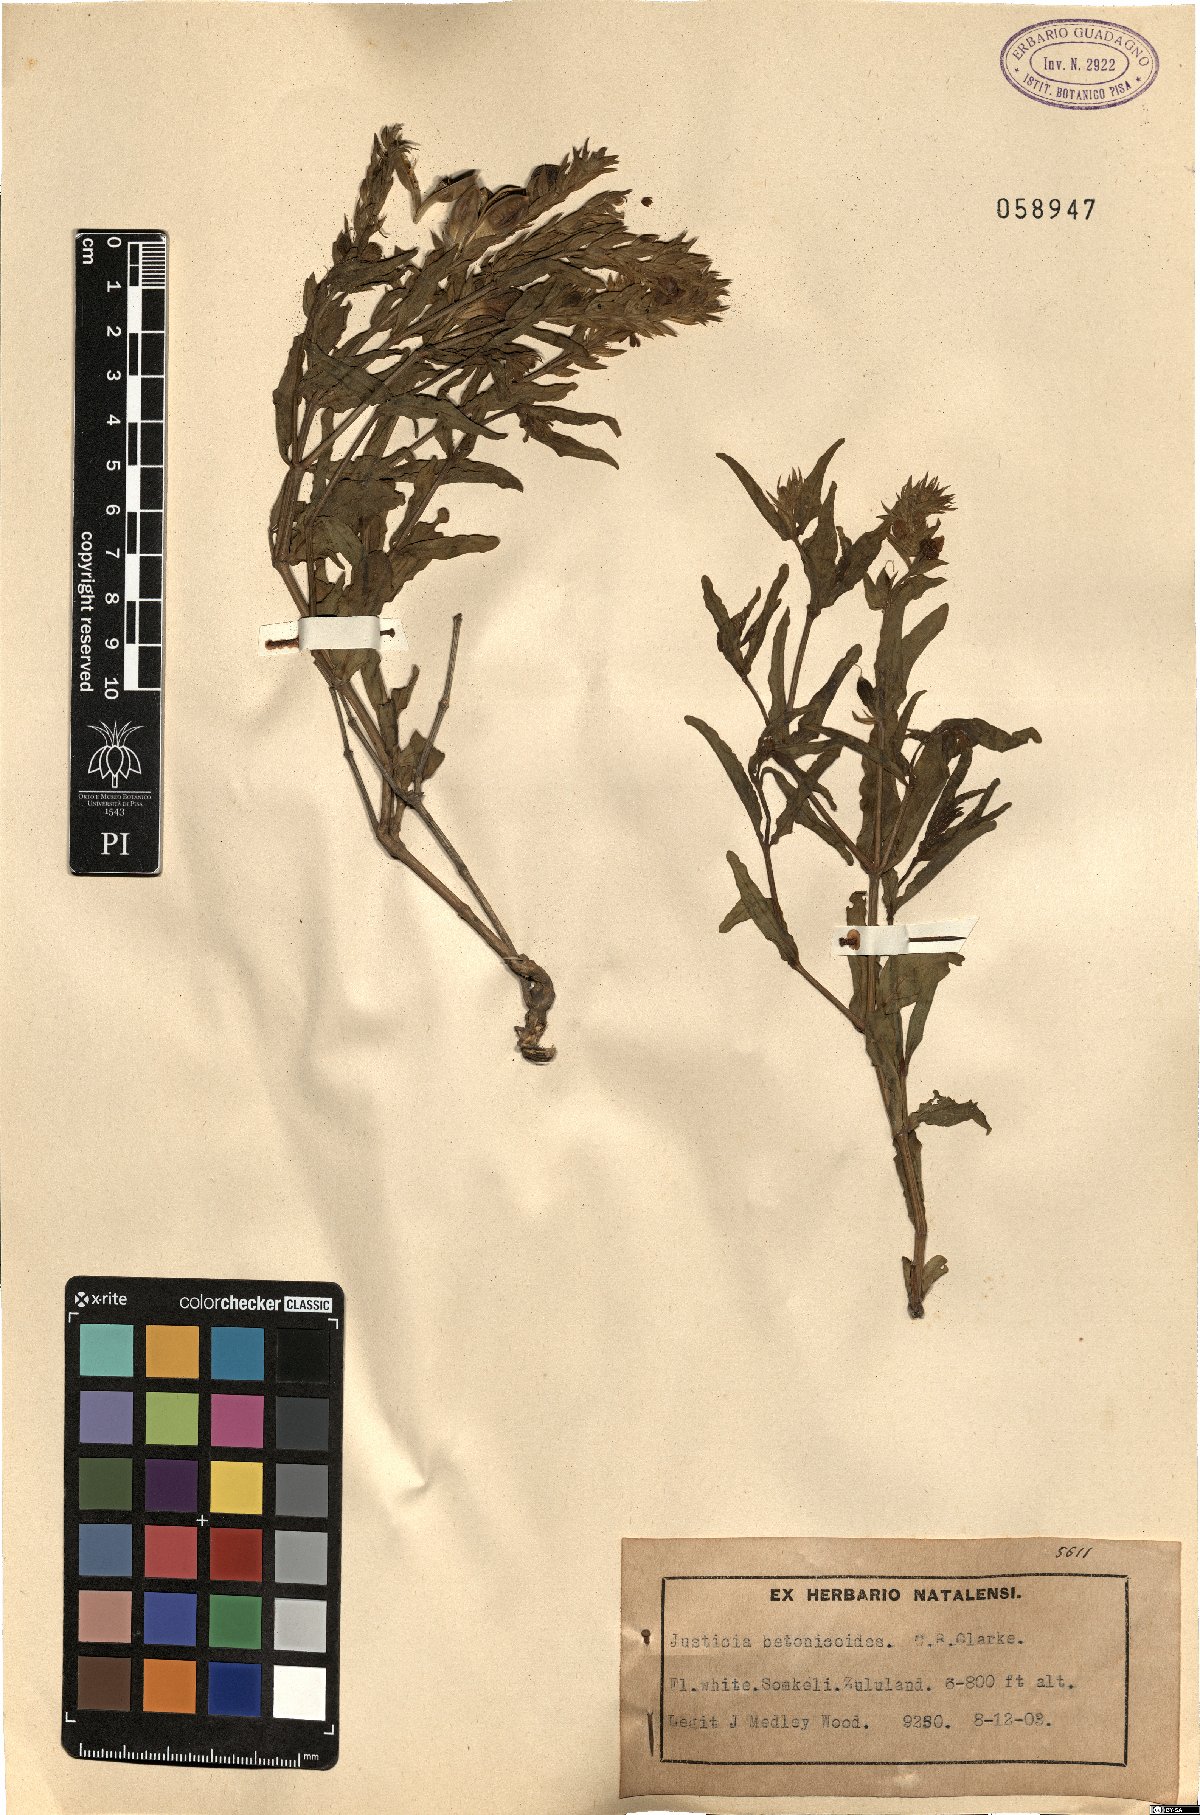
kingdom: Plantae
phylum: Tracheophyta
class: Magnoliopsida
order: Lamiales
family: Acanthaceae
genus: Nicoteba
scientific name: Nicoteba betonica
